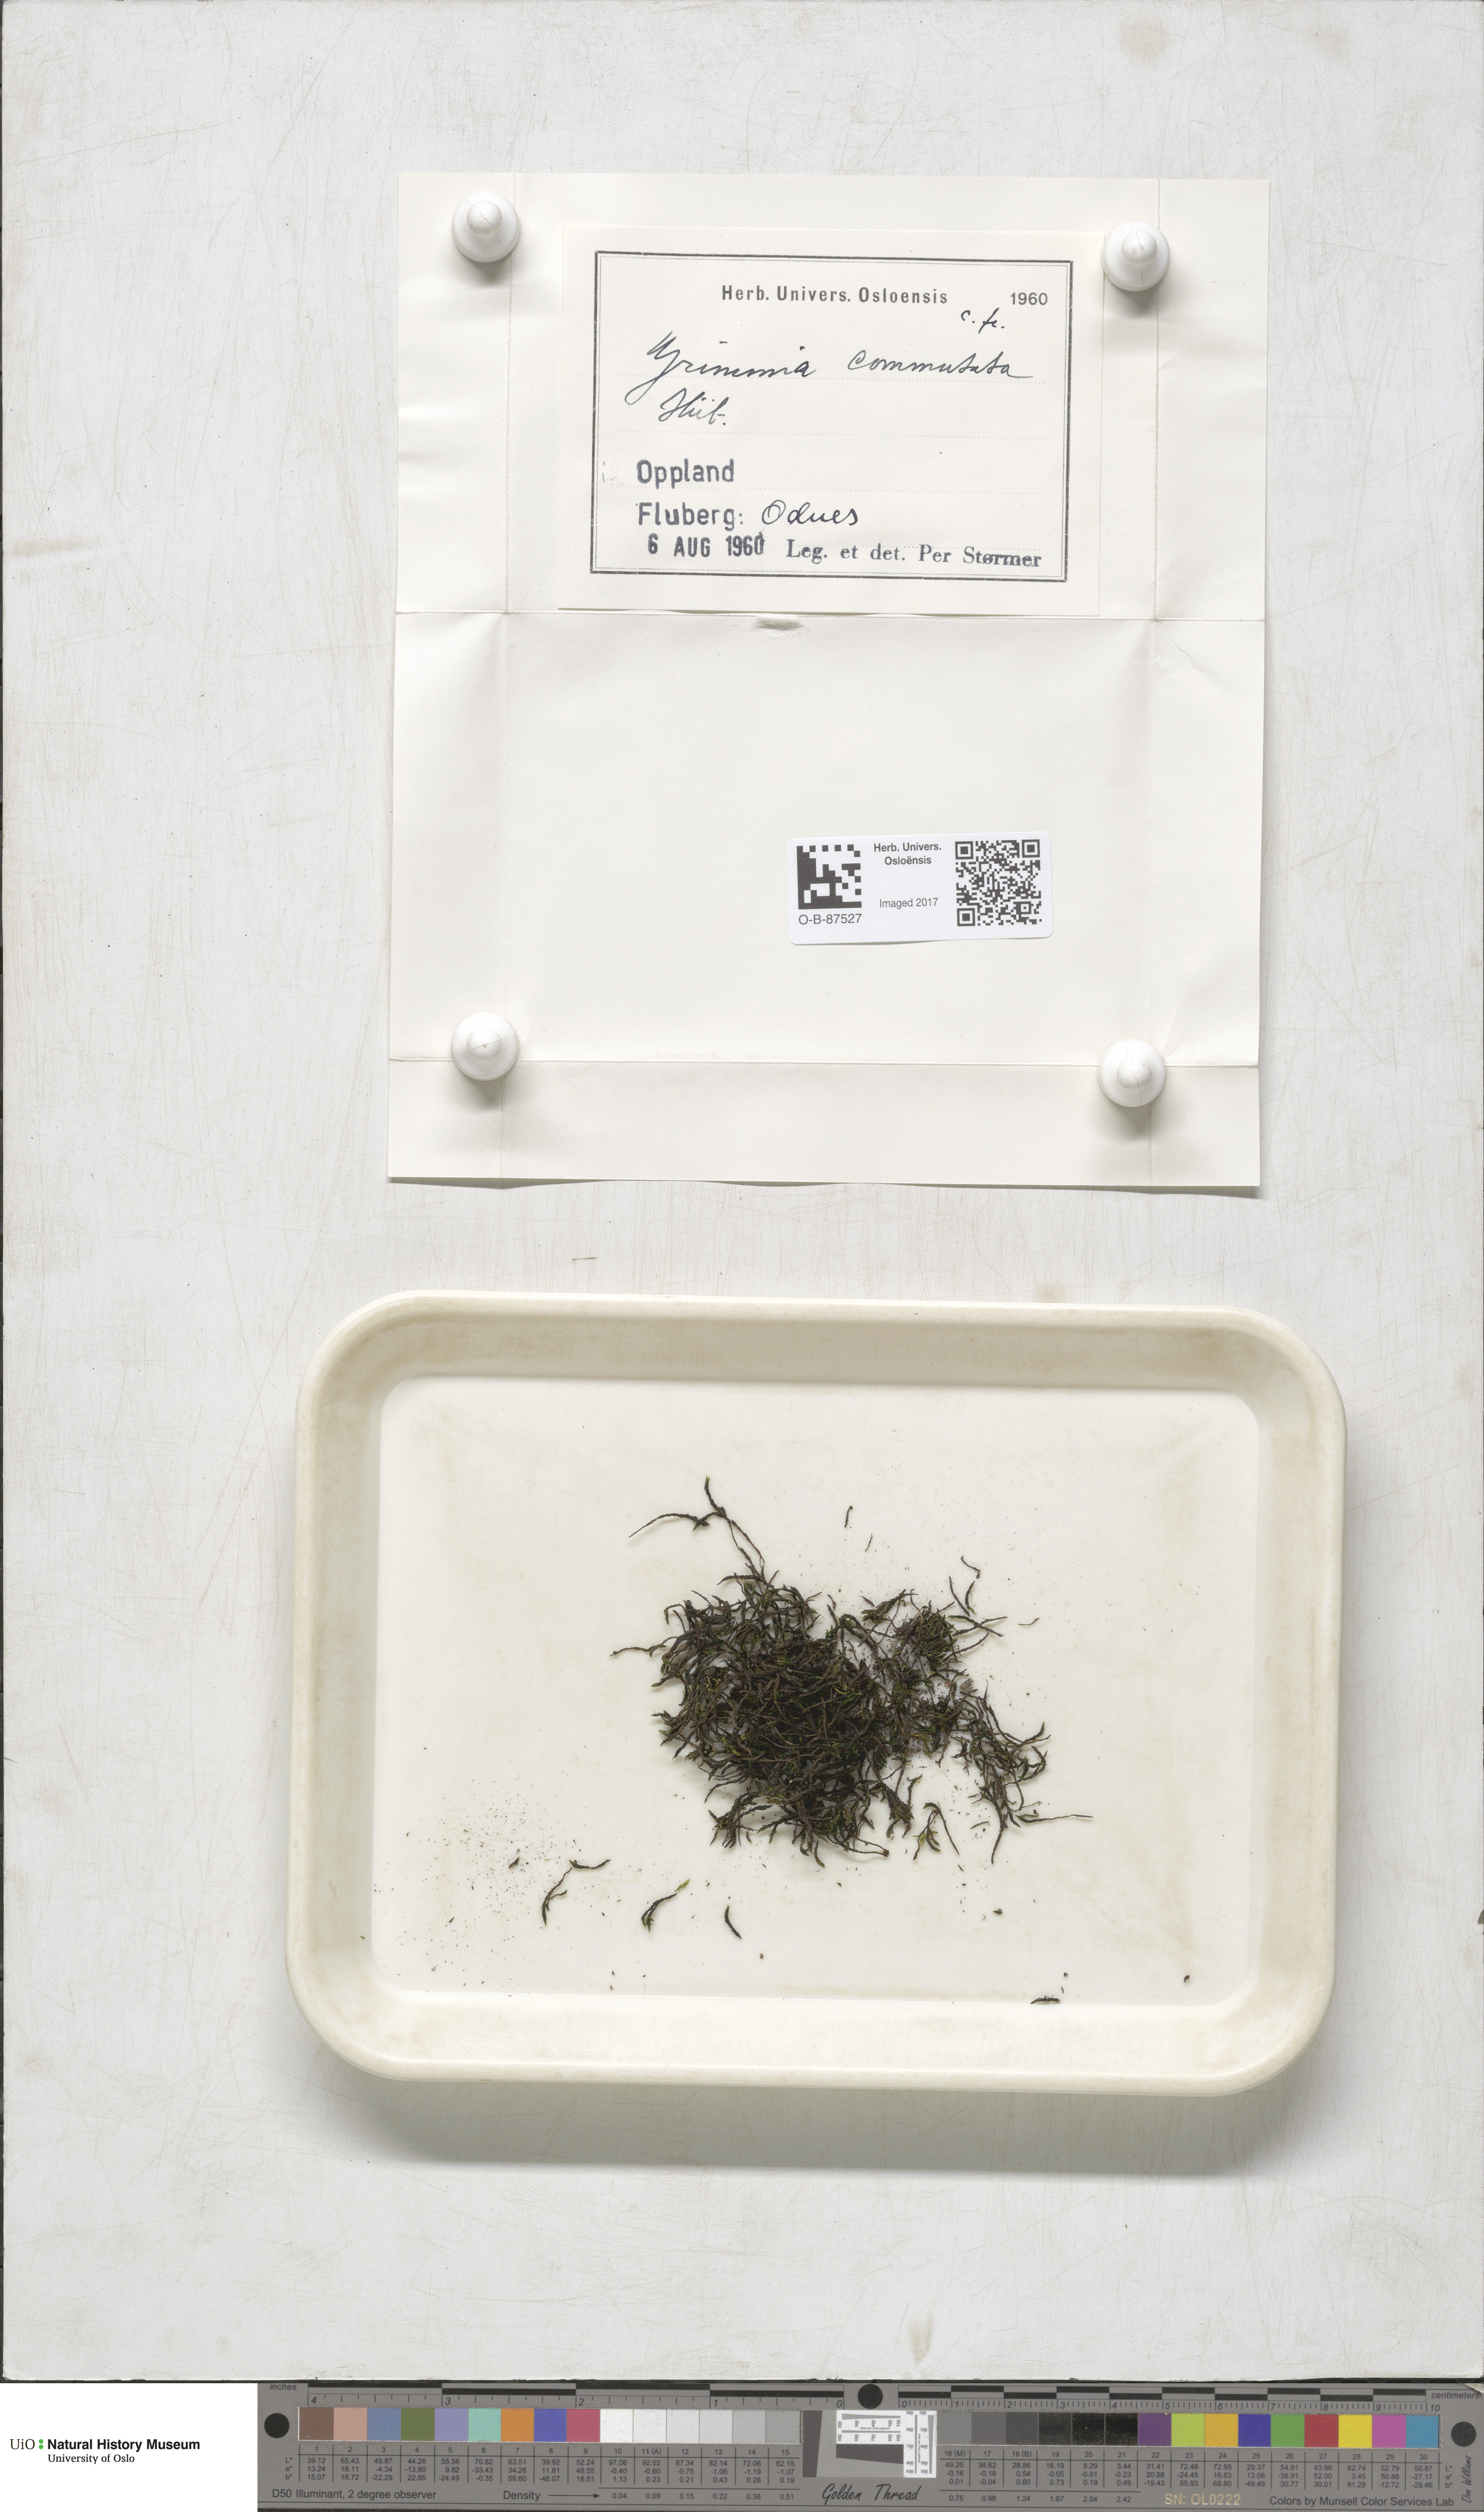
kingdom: Plantae
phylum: Bryophyta
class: Bryopsida
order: Grimmiales
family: Grimmiaceae
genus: Grimmia
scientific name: Grimmia ovalis
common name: Oval grimmia
